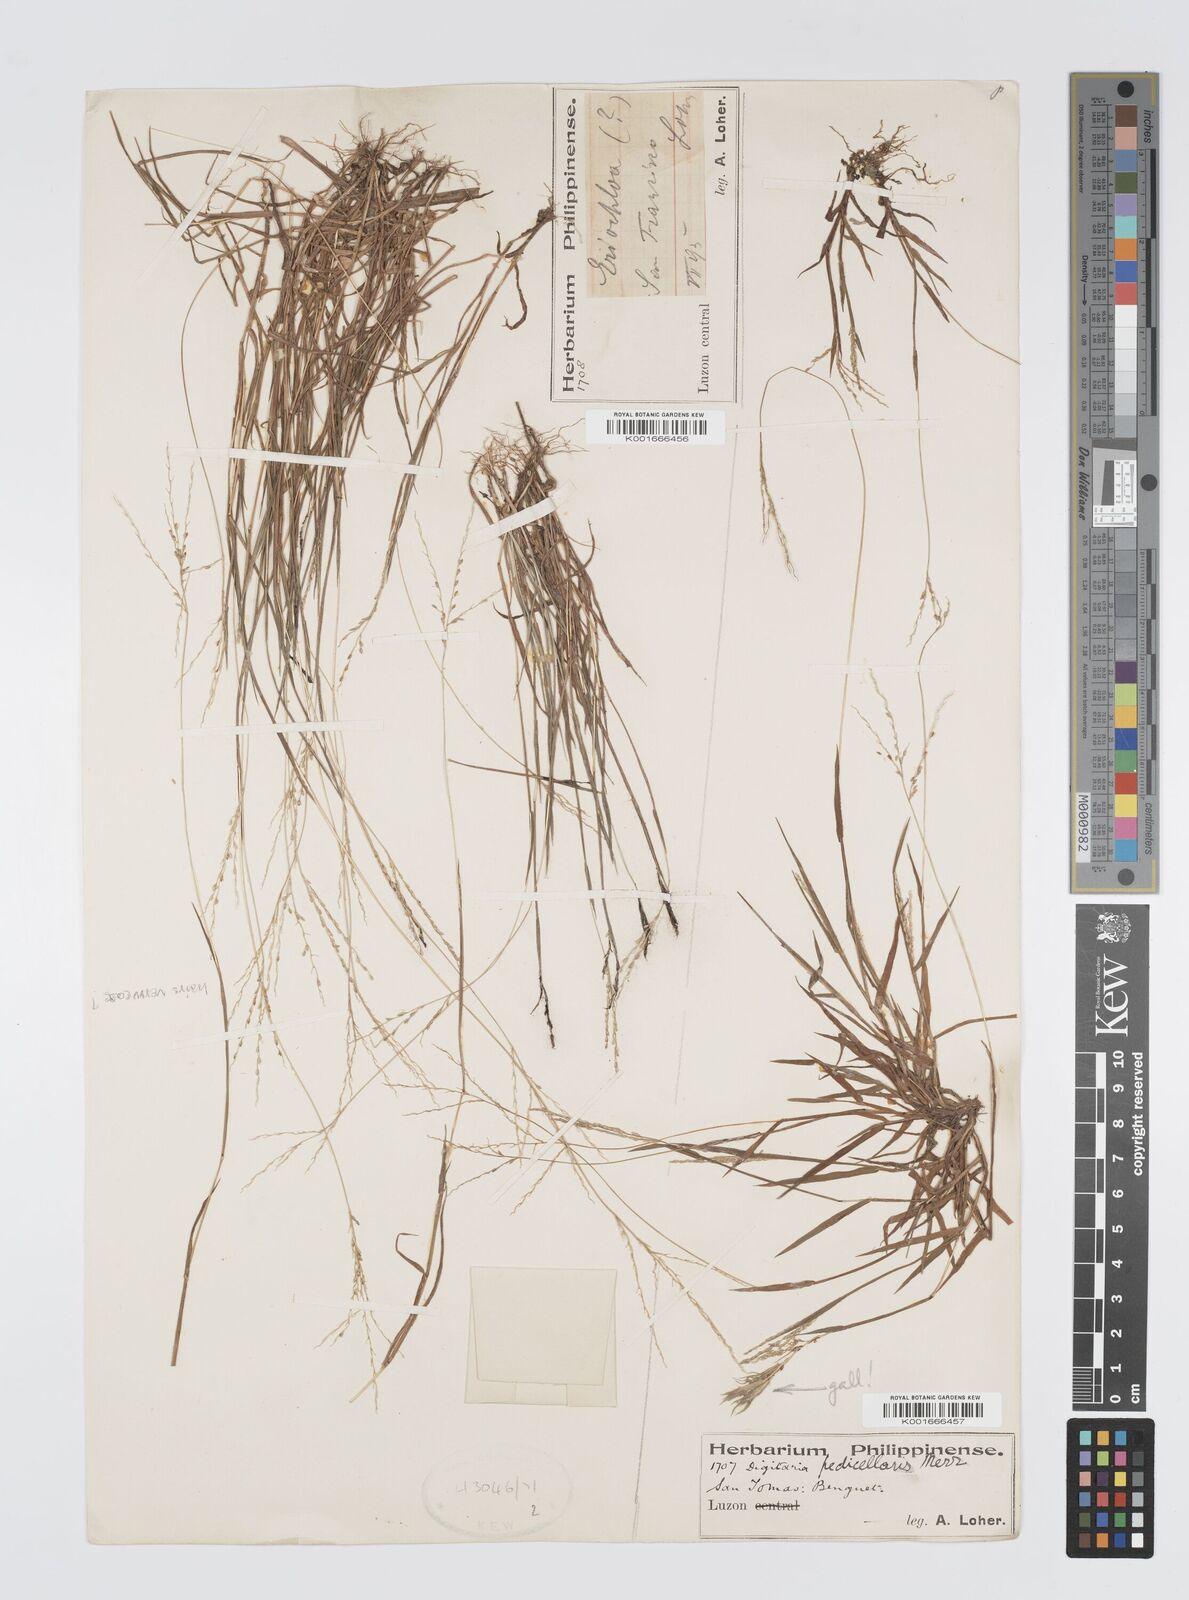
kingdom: Plantae
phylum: Tracheophyta
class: Liliopsida
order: Poales
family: Poaceae
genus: Digitaria
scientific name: Digitaria abludens
